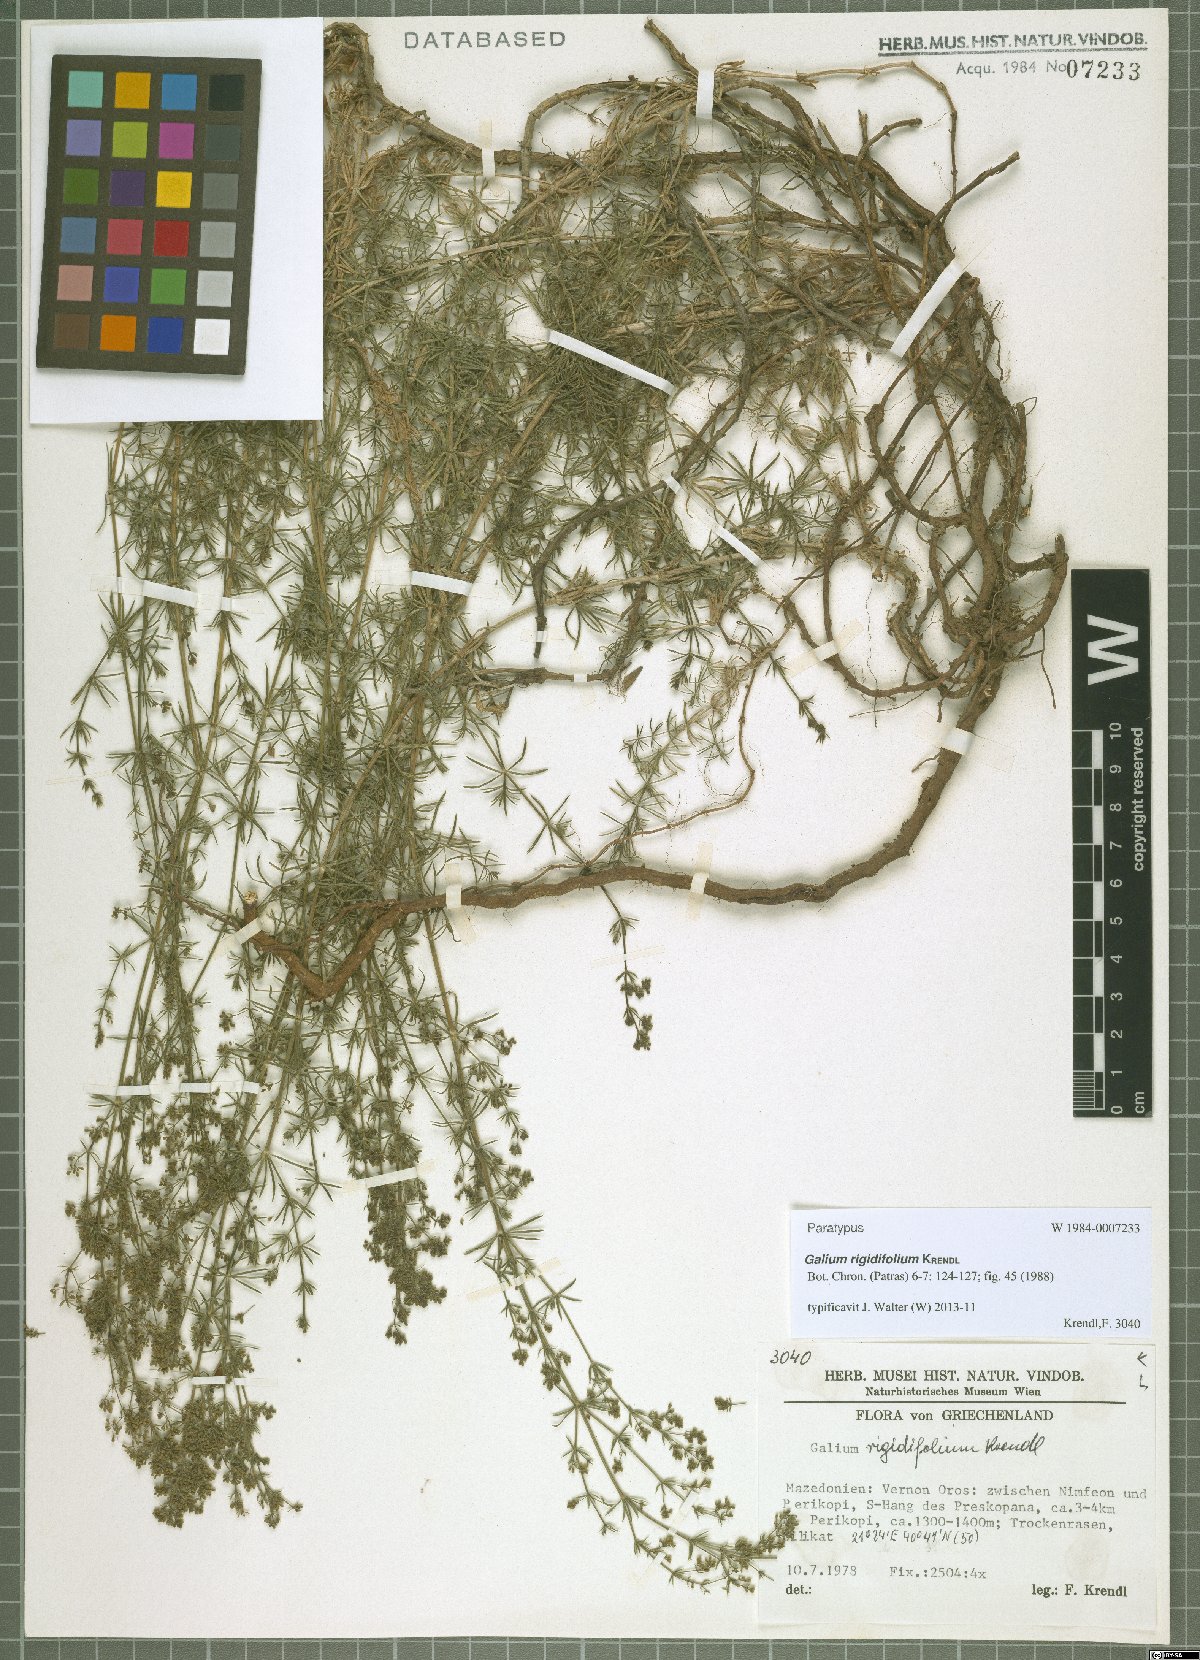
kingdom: Plantae
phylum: Tracheophyta
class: Magnoliopsida
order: Gentianales
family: Rubiaceae
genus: Galium
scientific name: Galium rigidifolium
